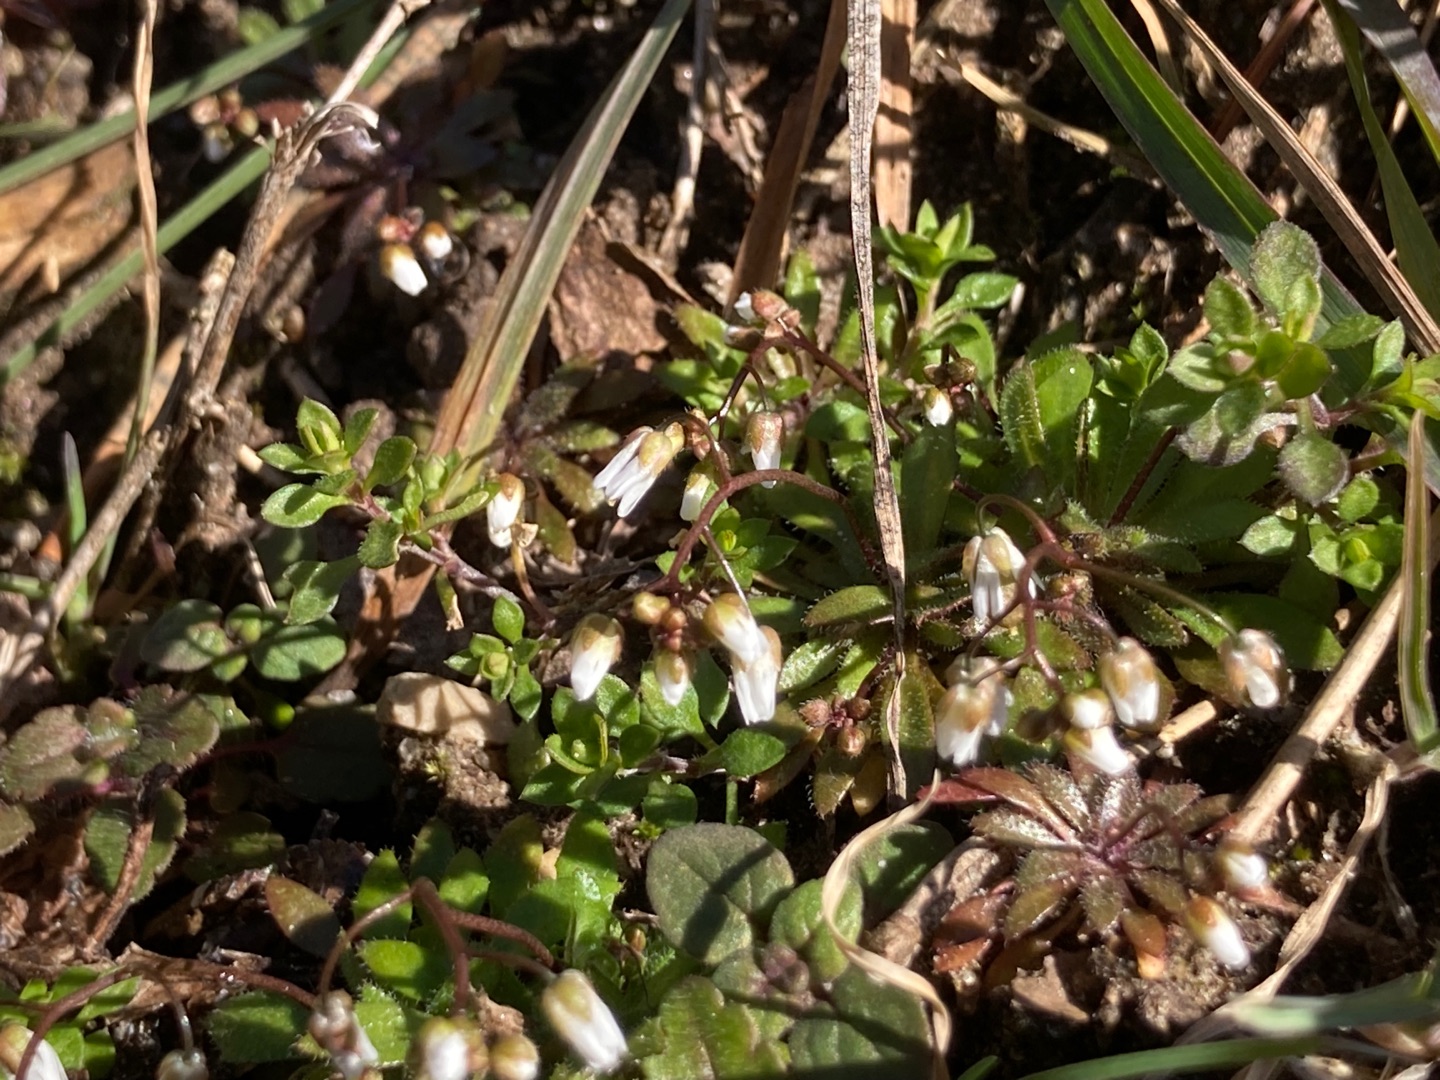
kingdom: Plantae
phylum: Tracheophyta
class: Magnoliopsida
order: Brassicales
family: Brassicaceae
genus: Draba
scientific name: Draba verna
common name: Vår-gæslingeblomst
